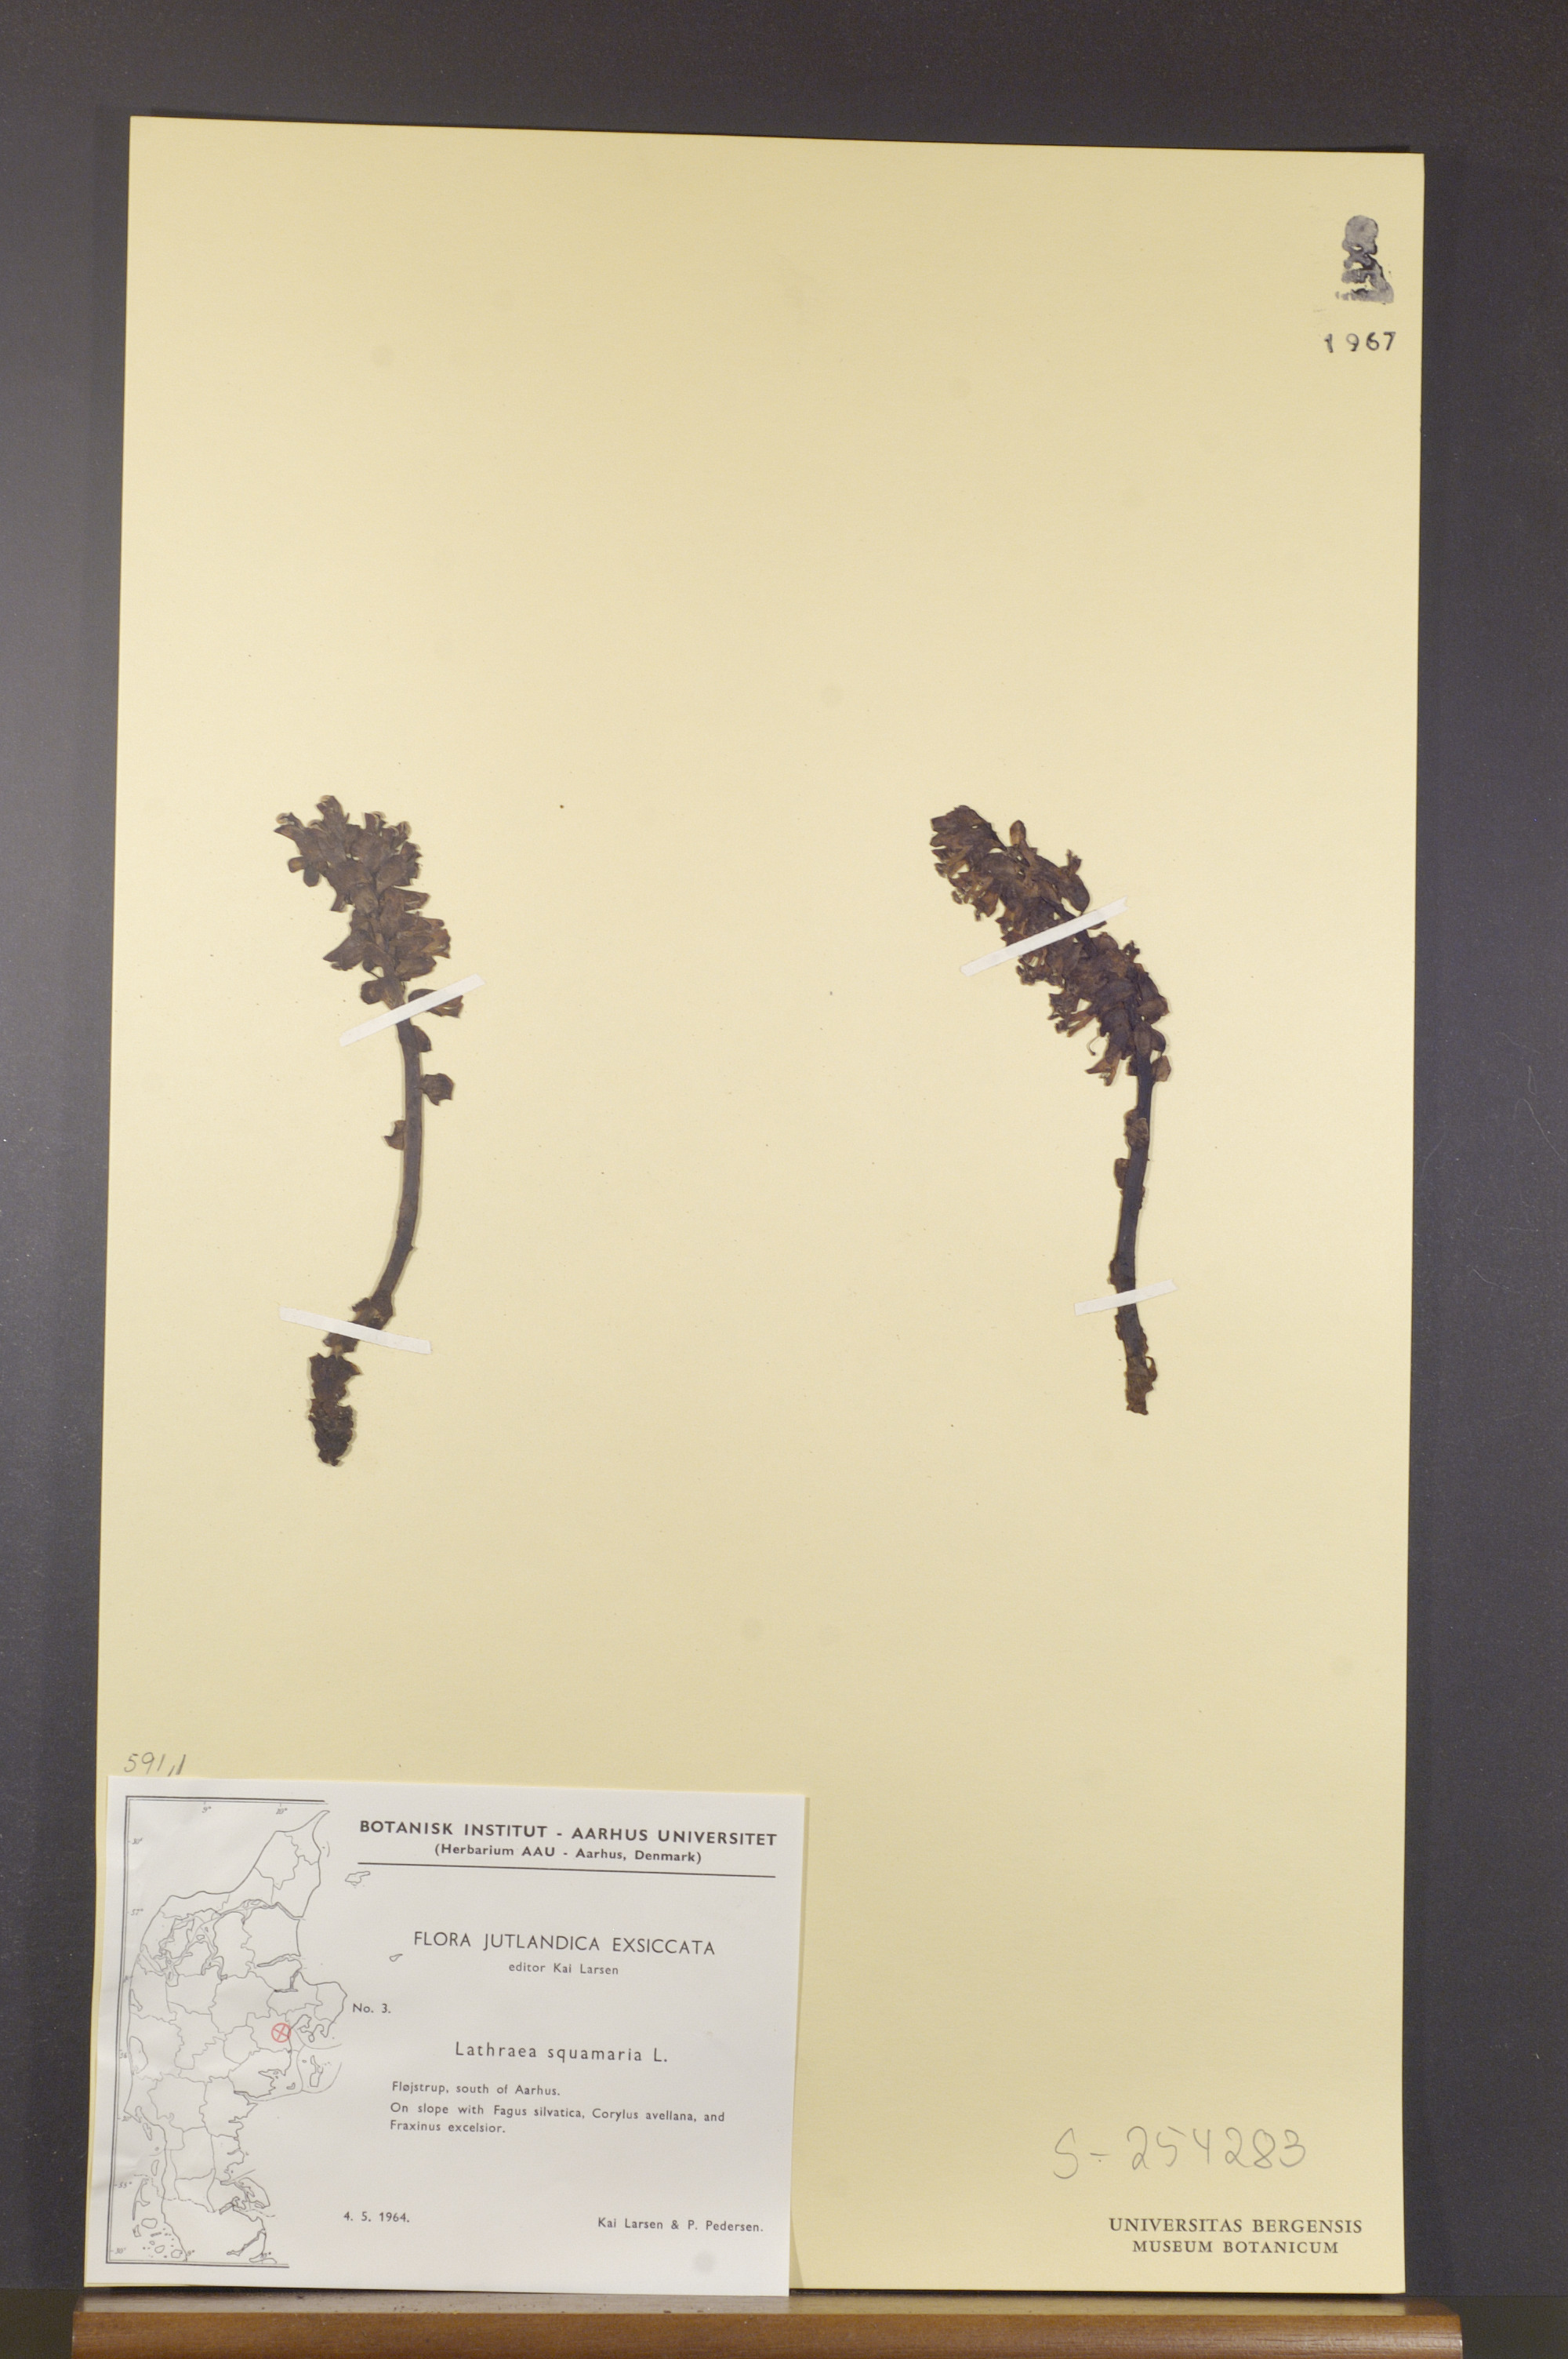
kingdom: Plantae
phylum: Tracheophyta
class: Magnoliopsida
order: Lamiales
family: Orobanchaceae
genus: Lathraea
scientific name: Lathraea squamaria
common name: Toothwort
